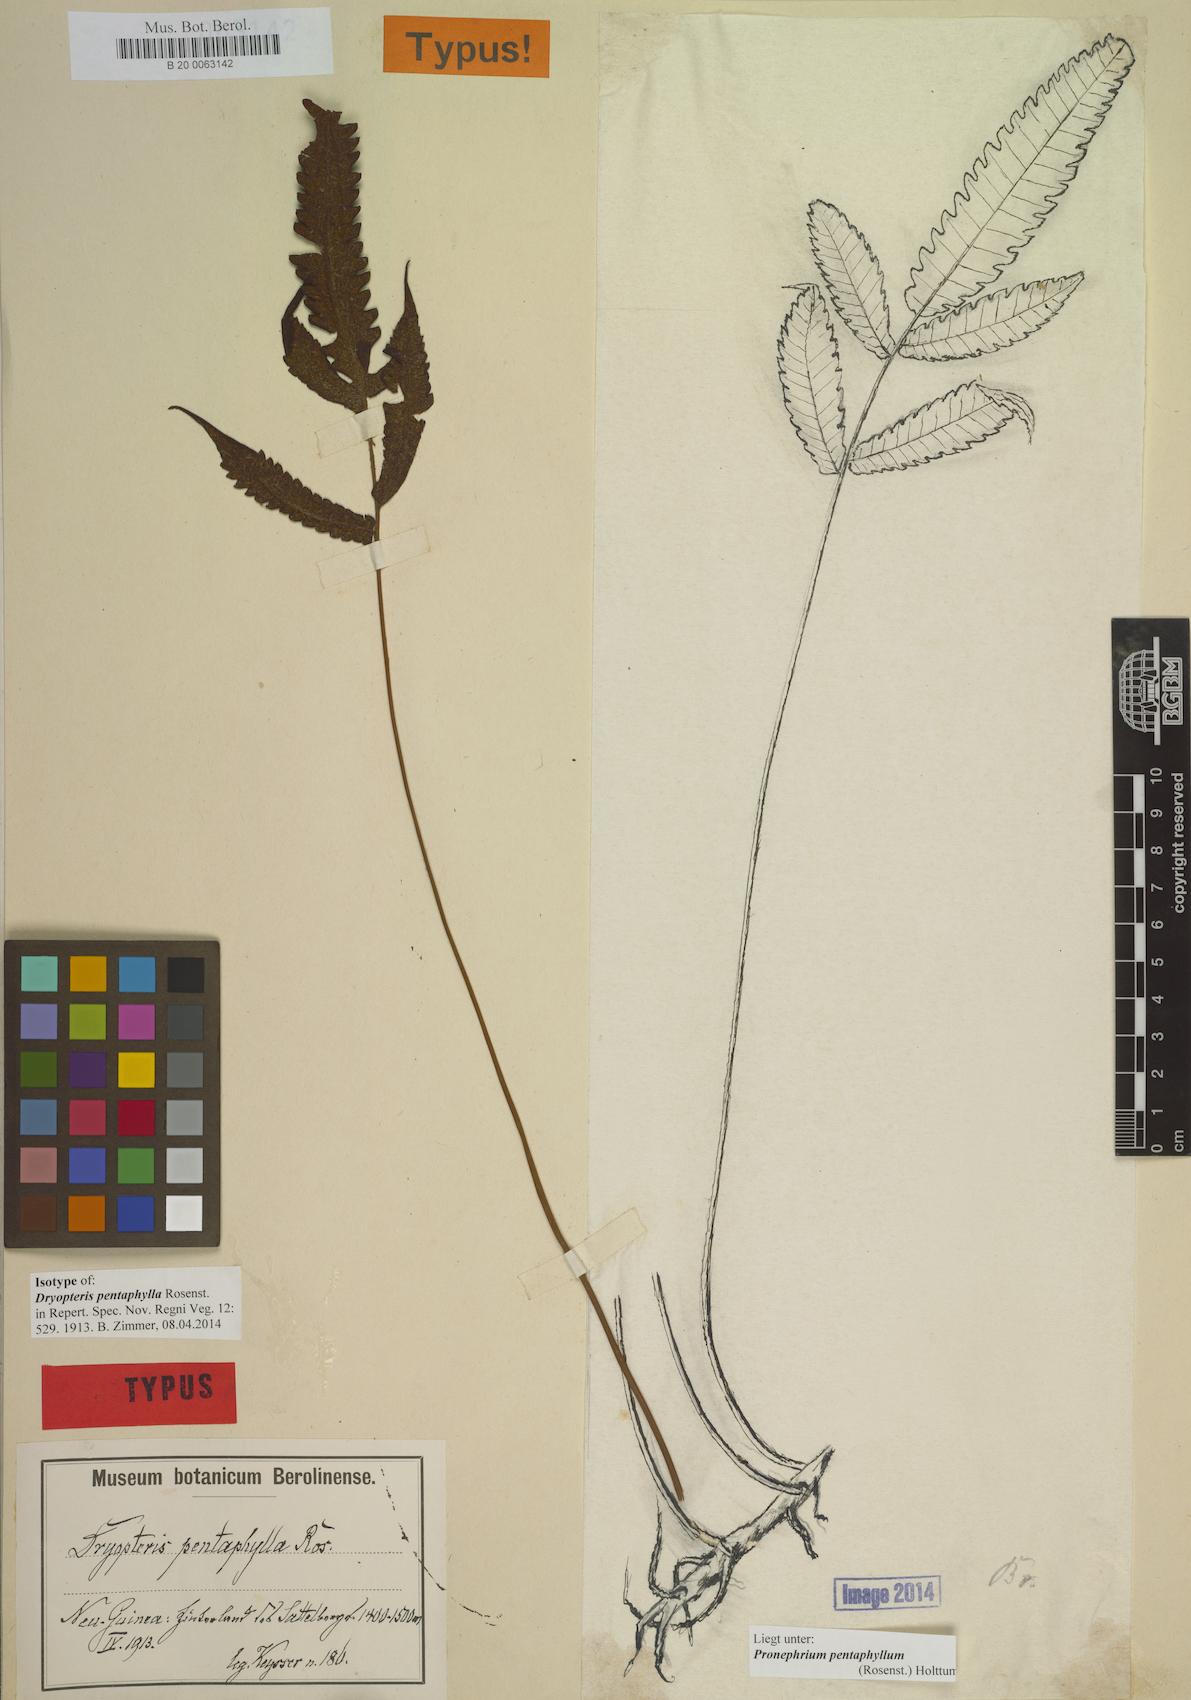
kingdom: Plantae
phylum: Tracheophyta
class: Polypodiopsida
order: Polypodiales
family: Thelypteridaceae
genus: Sphaerostephanos
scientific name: Sphaerostephanos pentaphyllus
